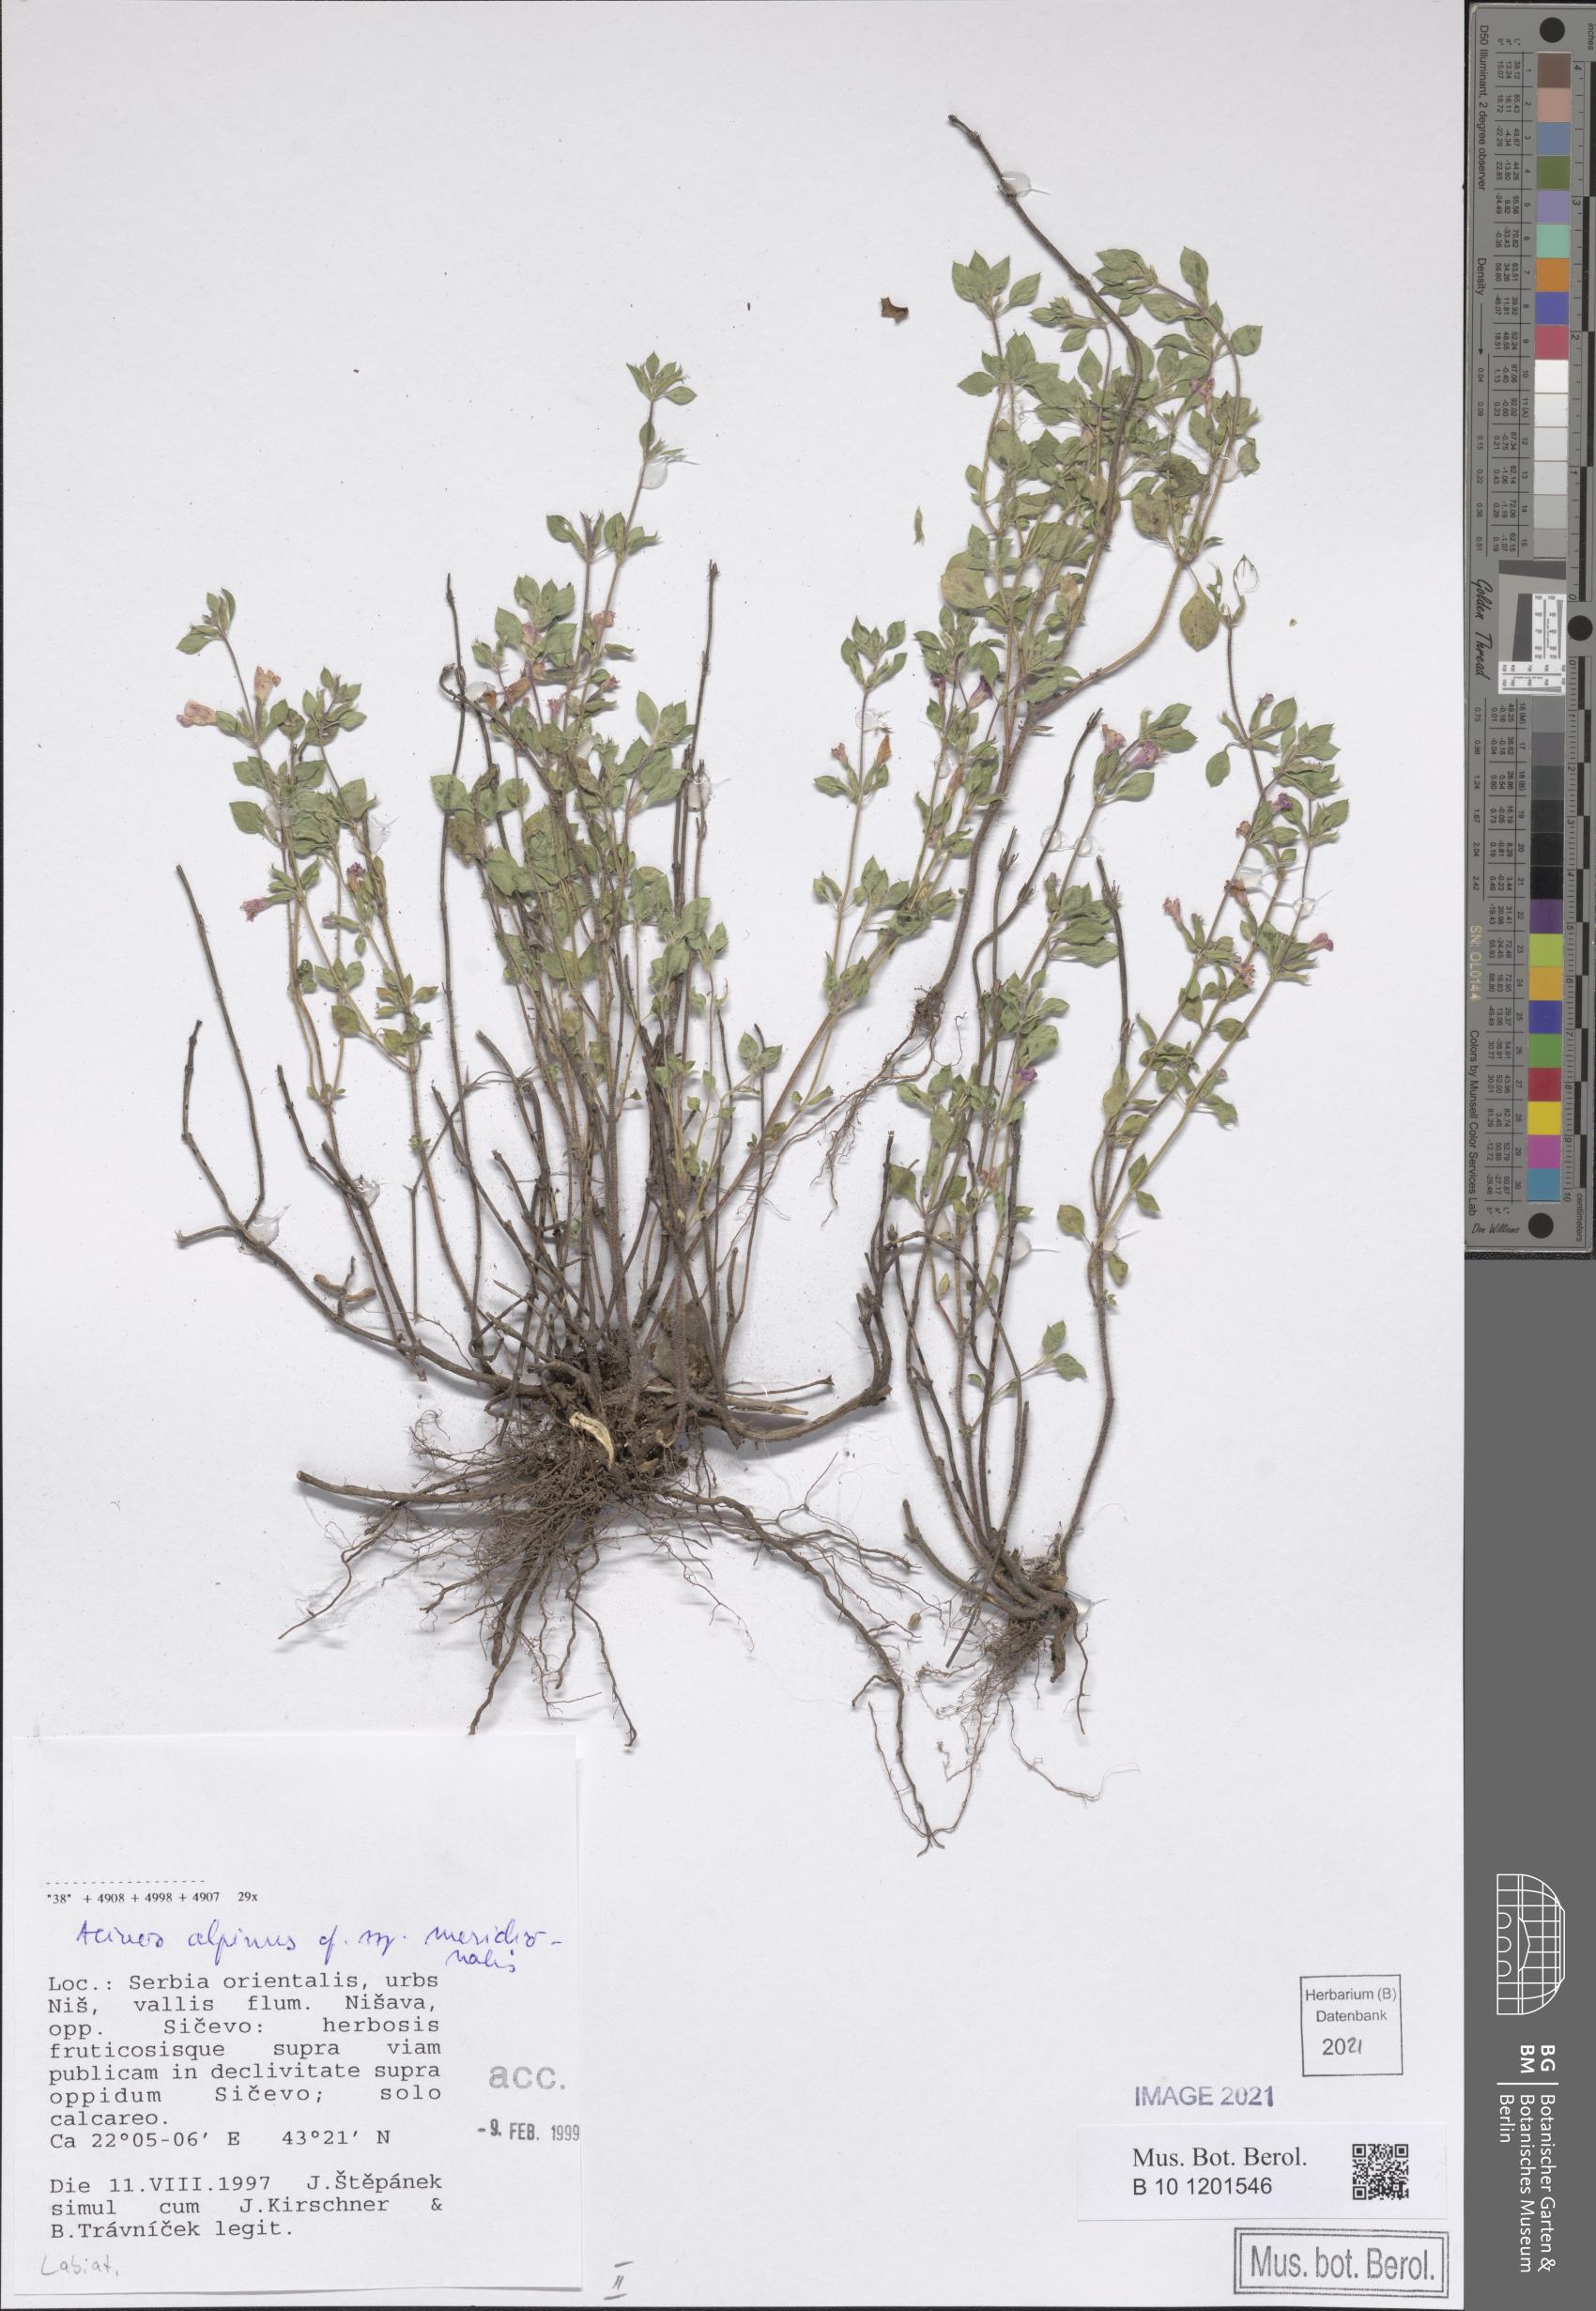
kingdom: Plantae
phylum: Tracheophyta
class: Magnoliopsida
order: Lamiales
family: Lamiaceae
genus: Clinopodium
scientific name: Clinopodium alpinum
